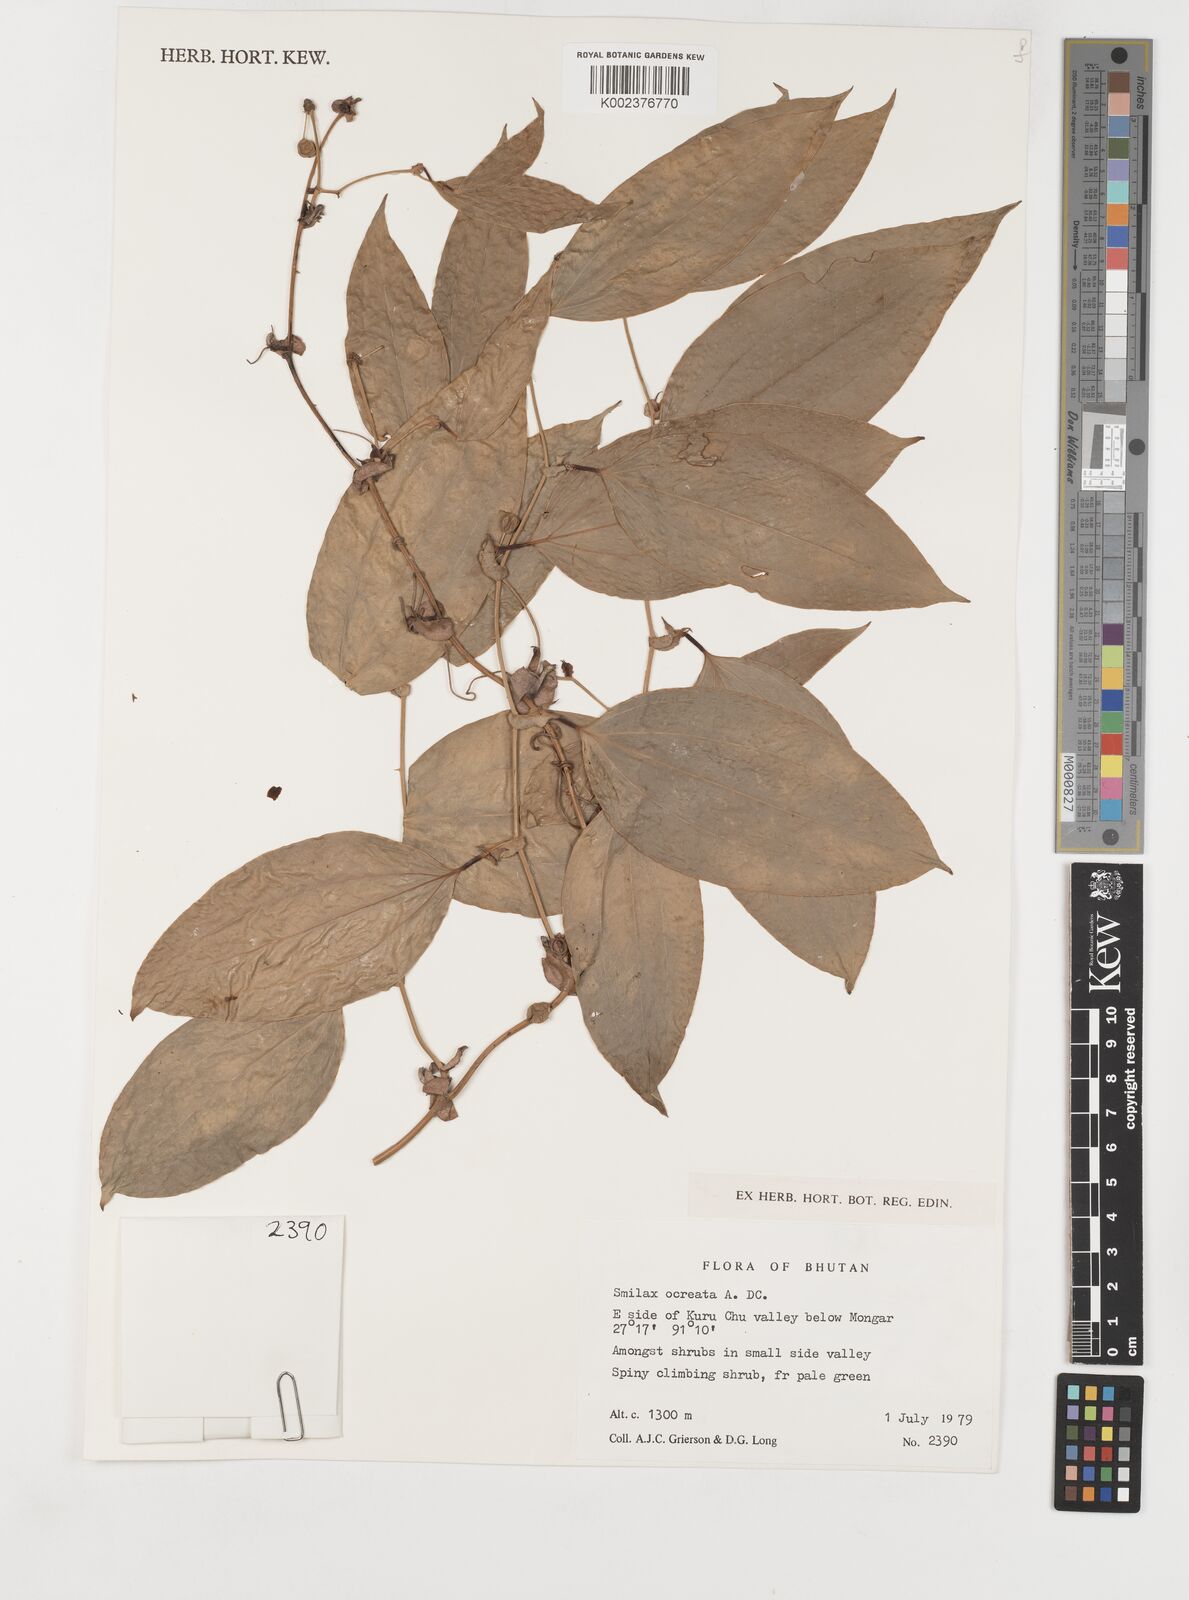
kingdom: Plantae
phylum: Tracheophyta
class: Liliopsida
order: Liliales
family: Smilacaceae
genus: Smilax
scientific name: Smilax ocreata
